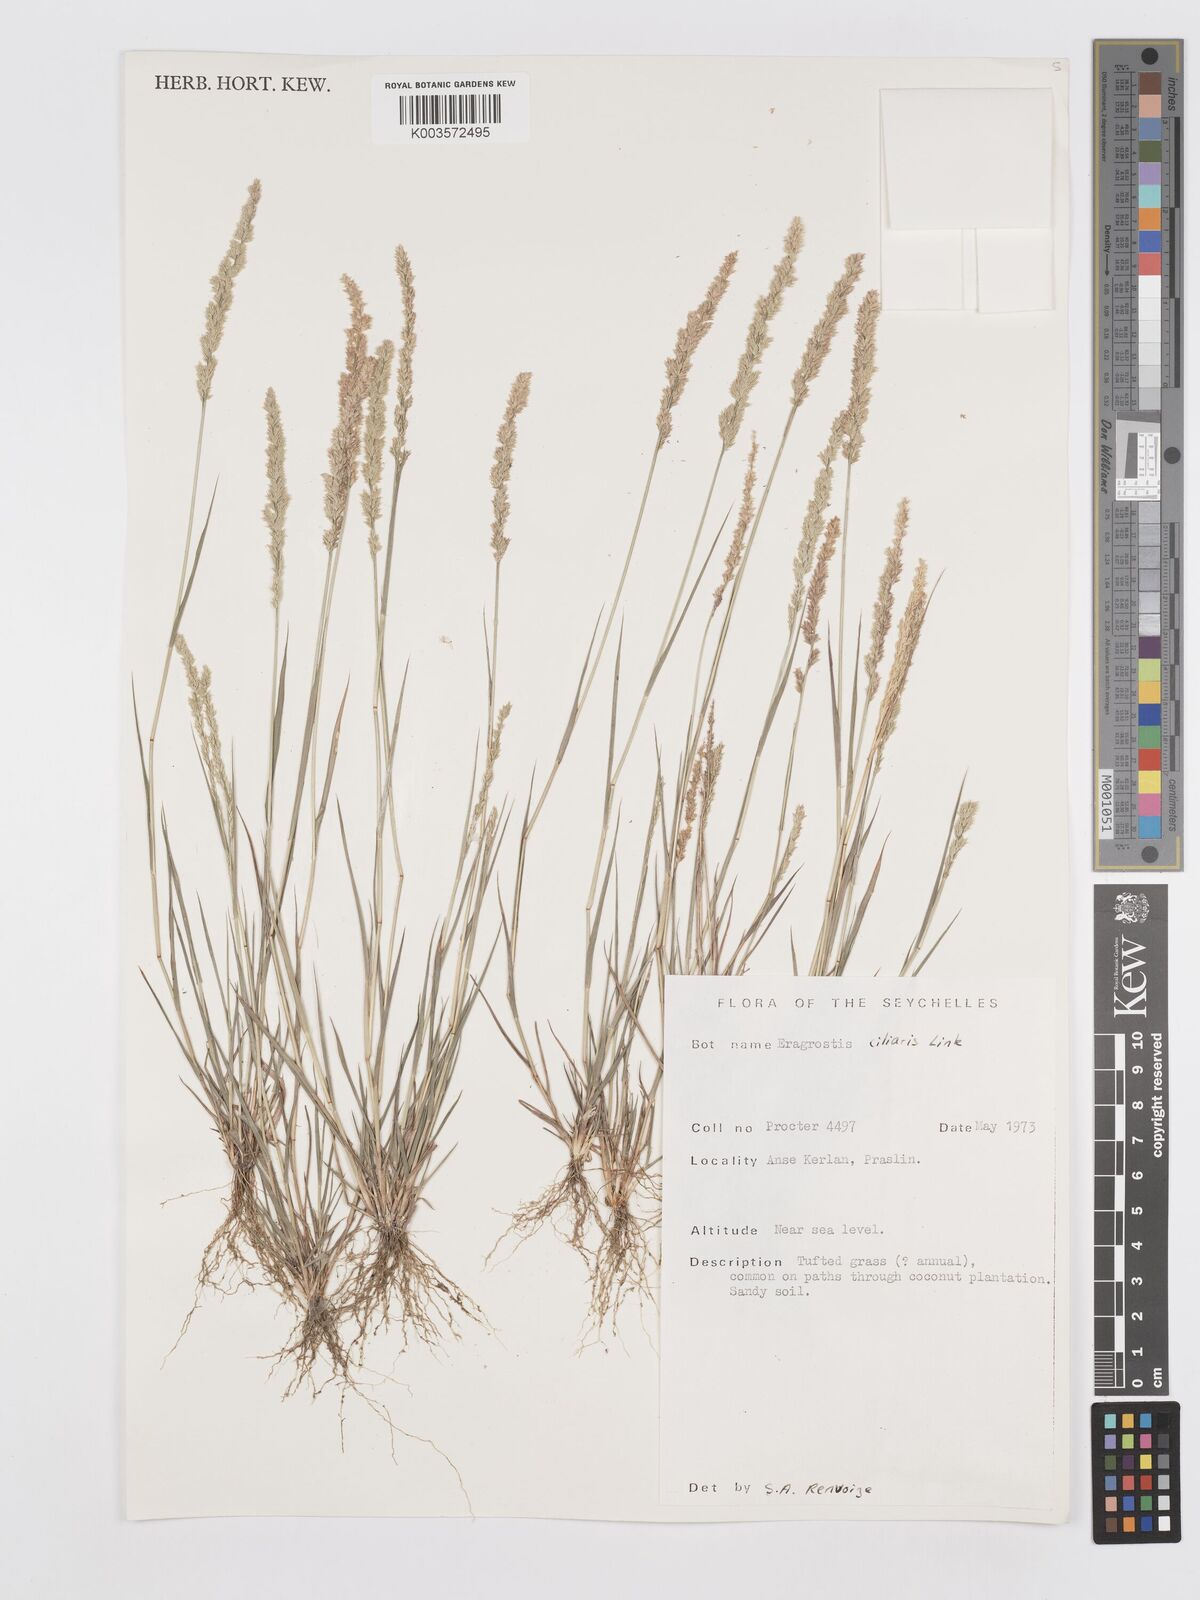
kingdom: Plantae
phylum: Tracheophyta
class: Liliopsida
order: Poales
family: Poaceae
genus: Eragrostis
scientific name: Eragrostis ciliaris
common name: Gophertail lovegrass
